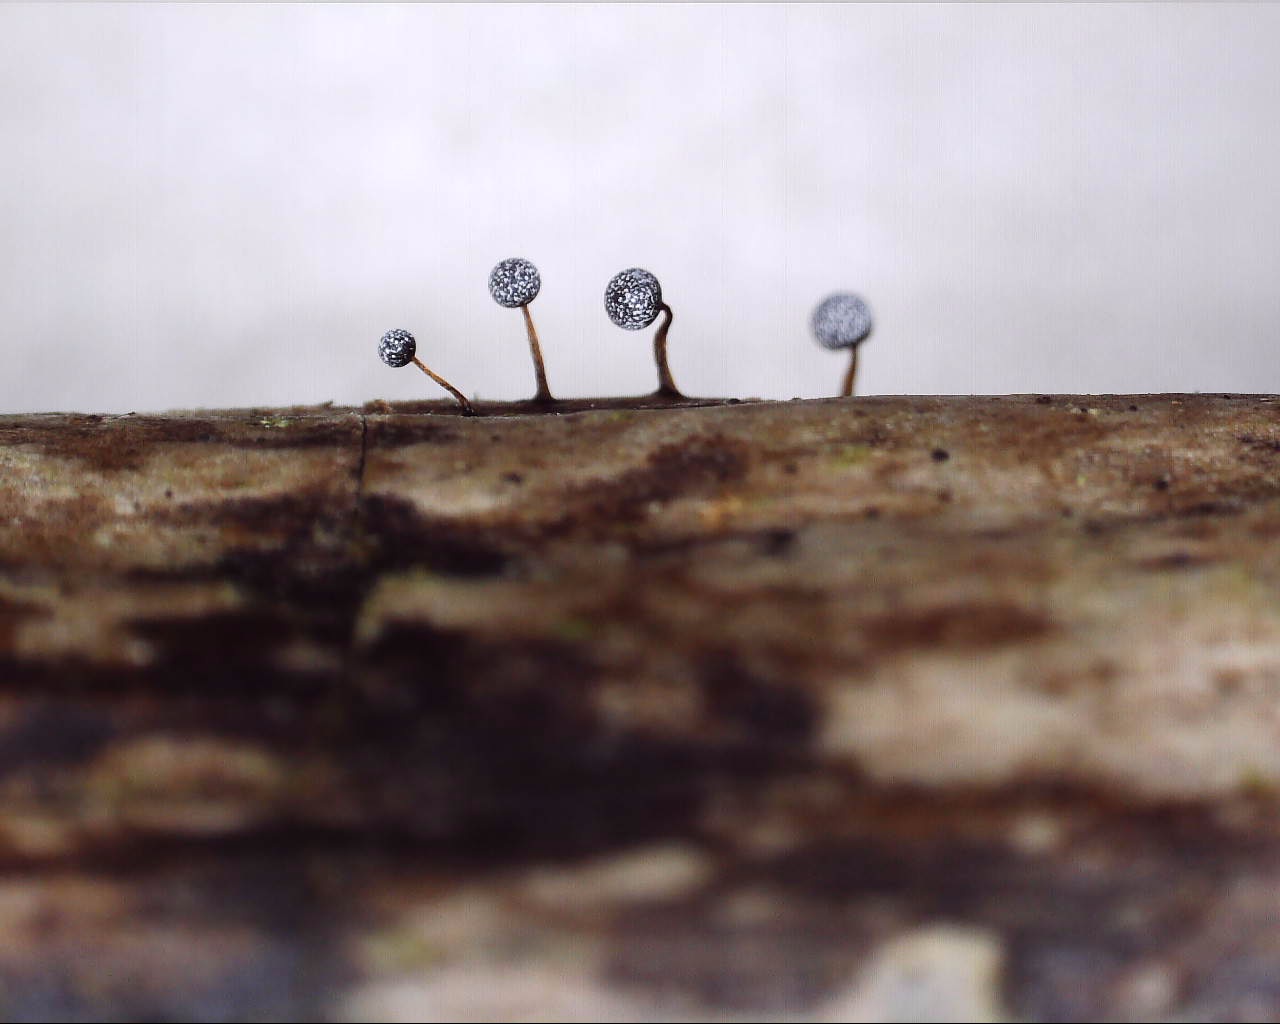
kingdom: Protozoa
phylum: Mycetozoa
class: Myxomycetes
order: Physarales
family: Physaraceae
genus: Physarum
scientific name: Physarum
